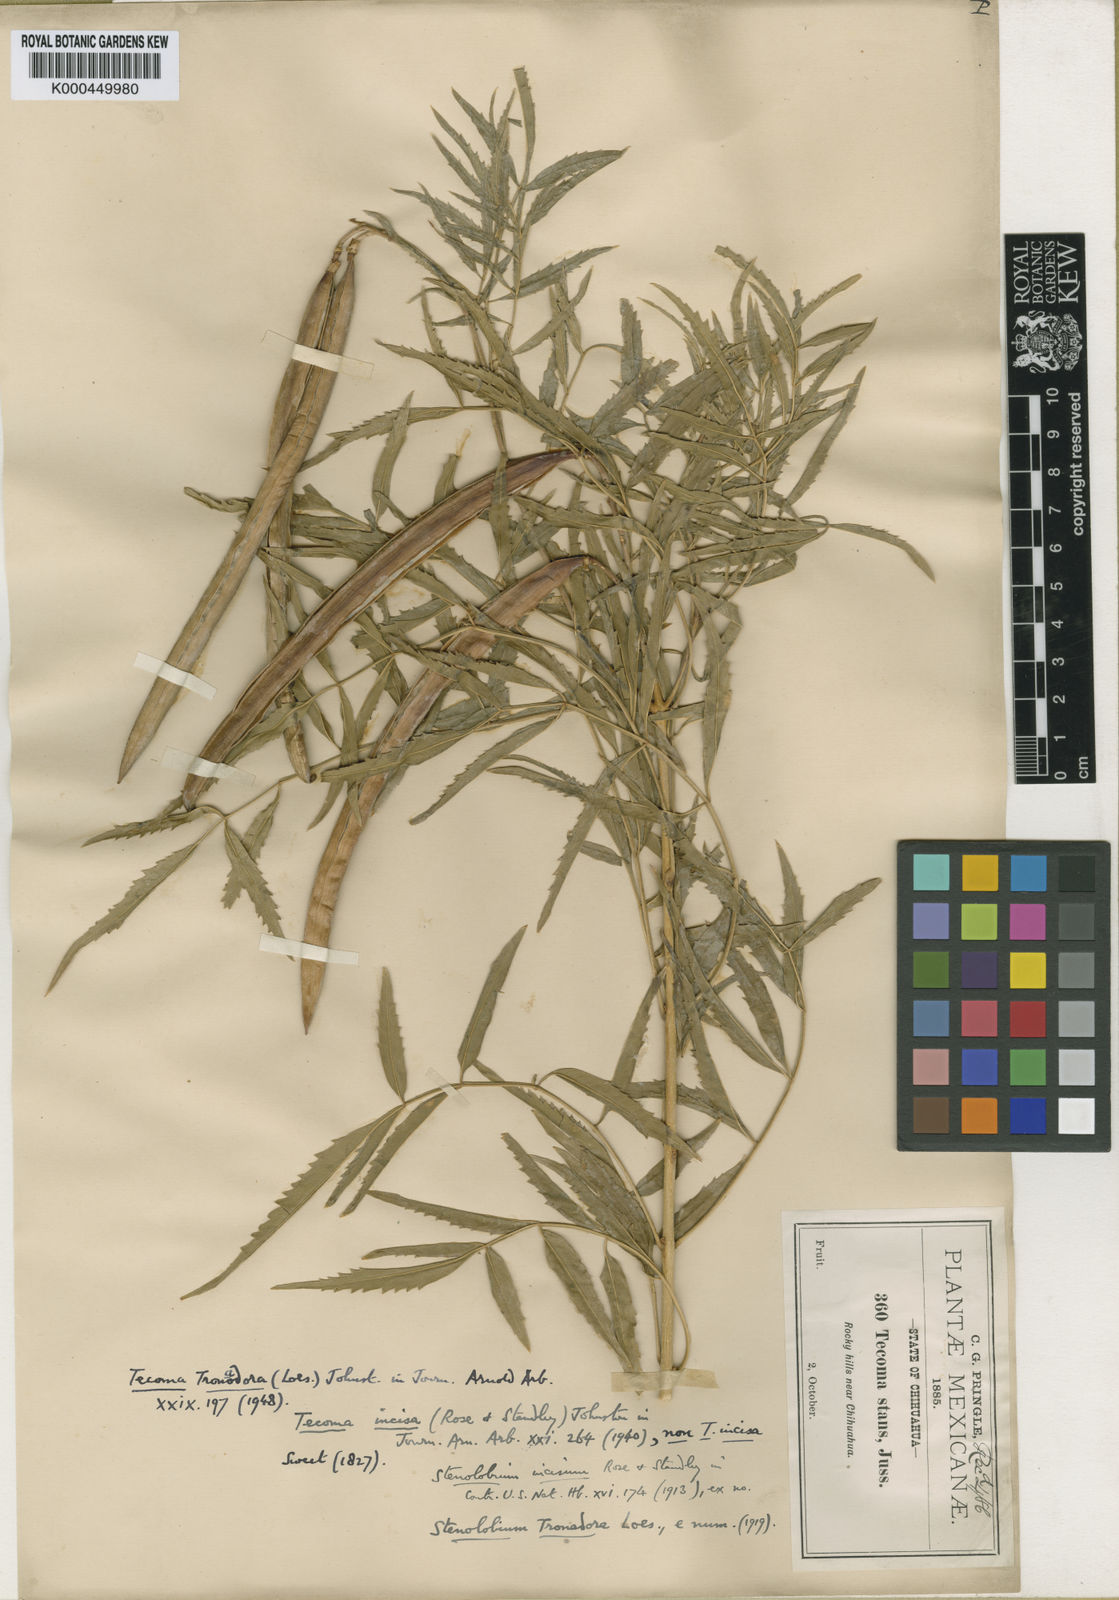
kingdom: Plantae
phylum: Tracheophyta
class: Magnoliopsida
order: Lamiales
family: Bignoniaceae
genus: Tecoma
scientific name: Tecoma stans
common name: Yellow trumpetbush
